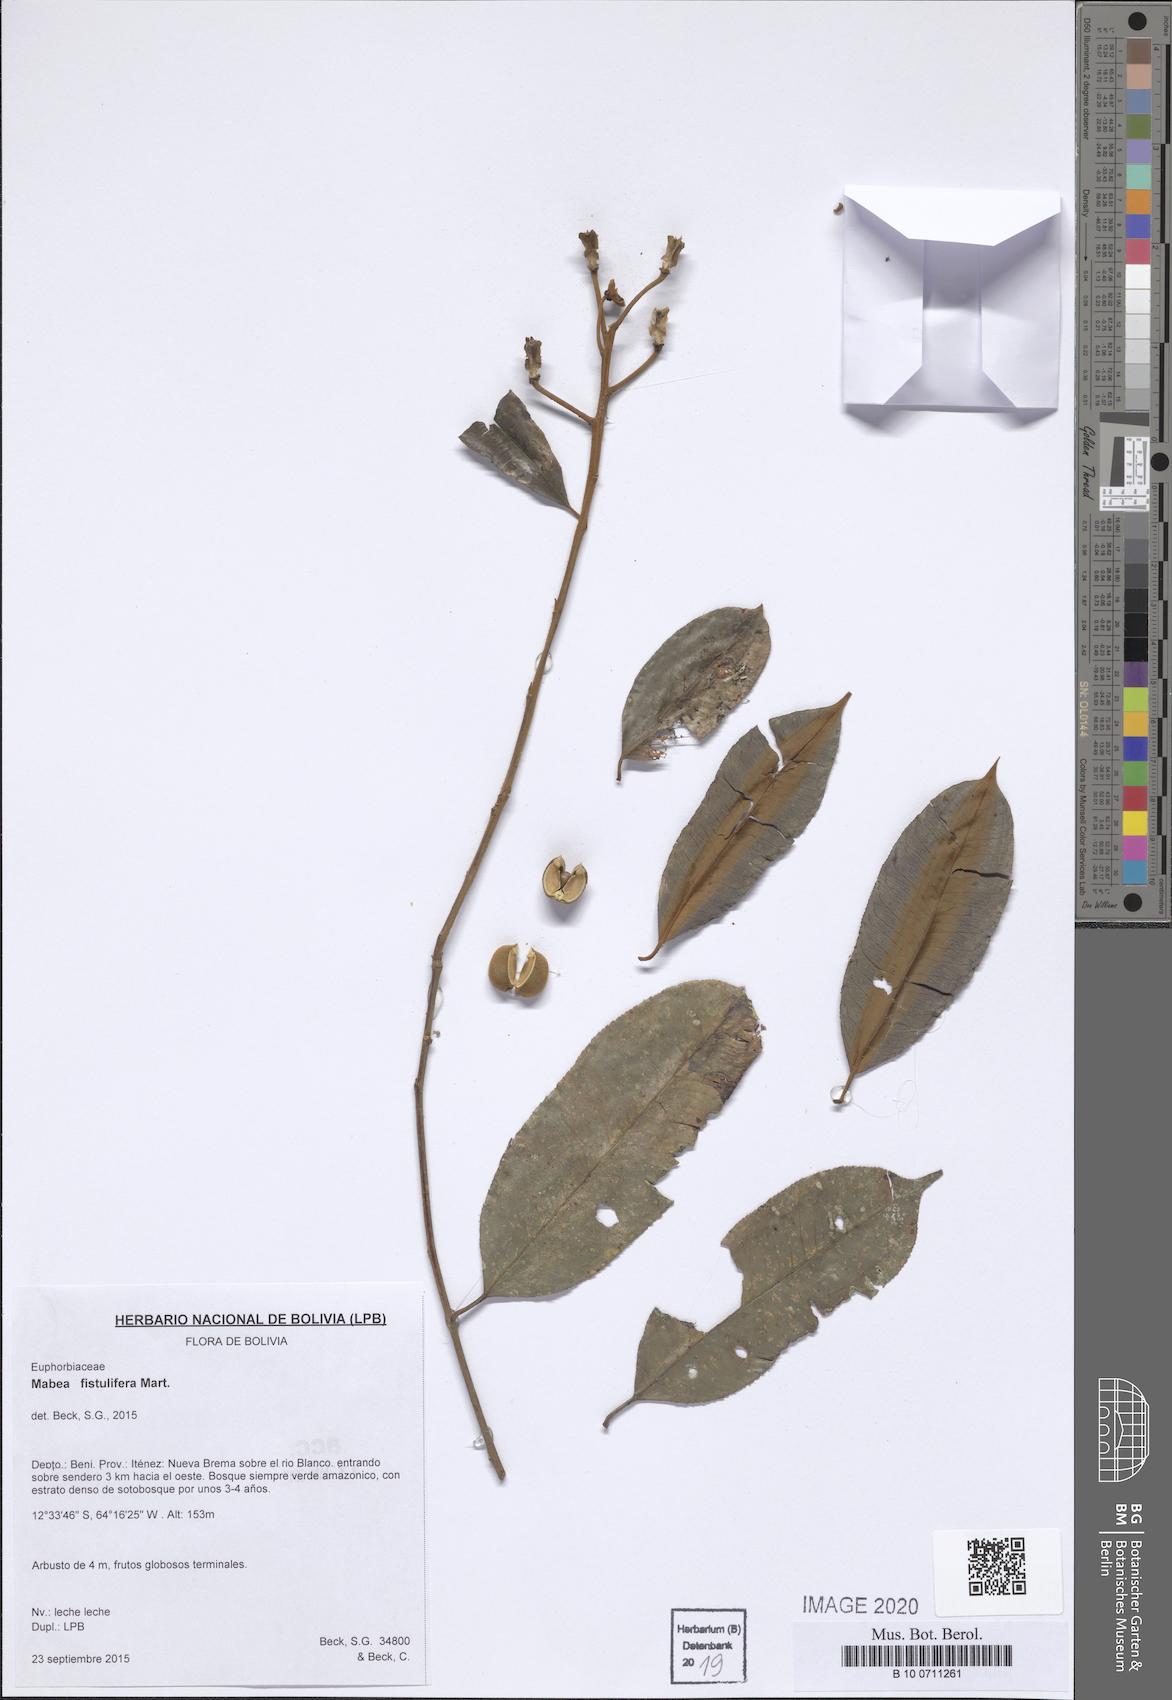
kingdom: Plantae
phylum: Tracheophyta
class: Magnoliopsida
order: Malpighiales
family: Euphorbiaceae
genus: Mabea
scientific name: Mabea fistulifera
